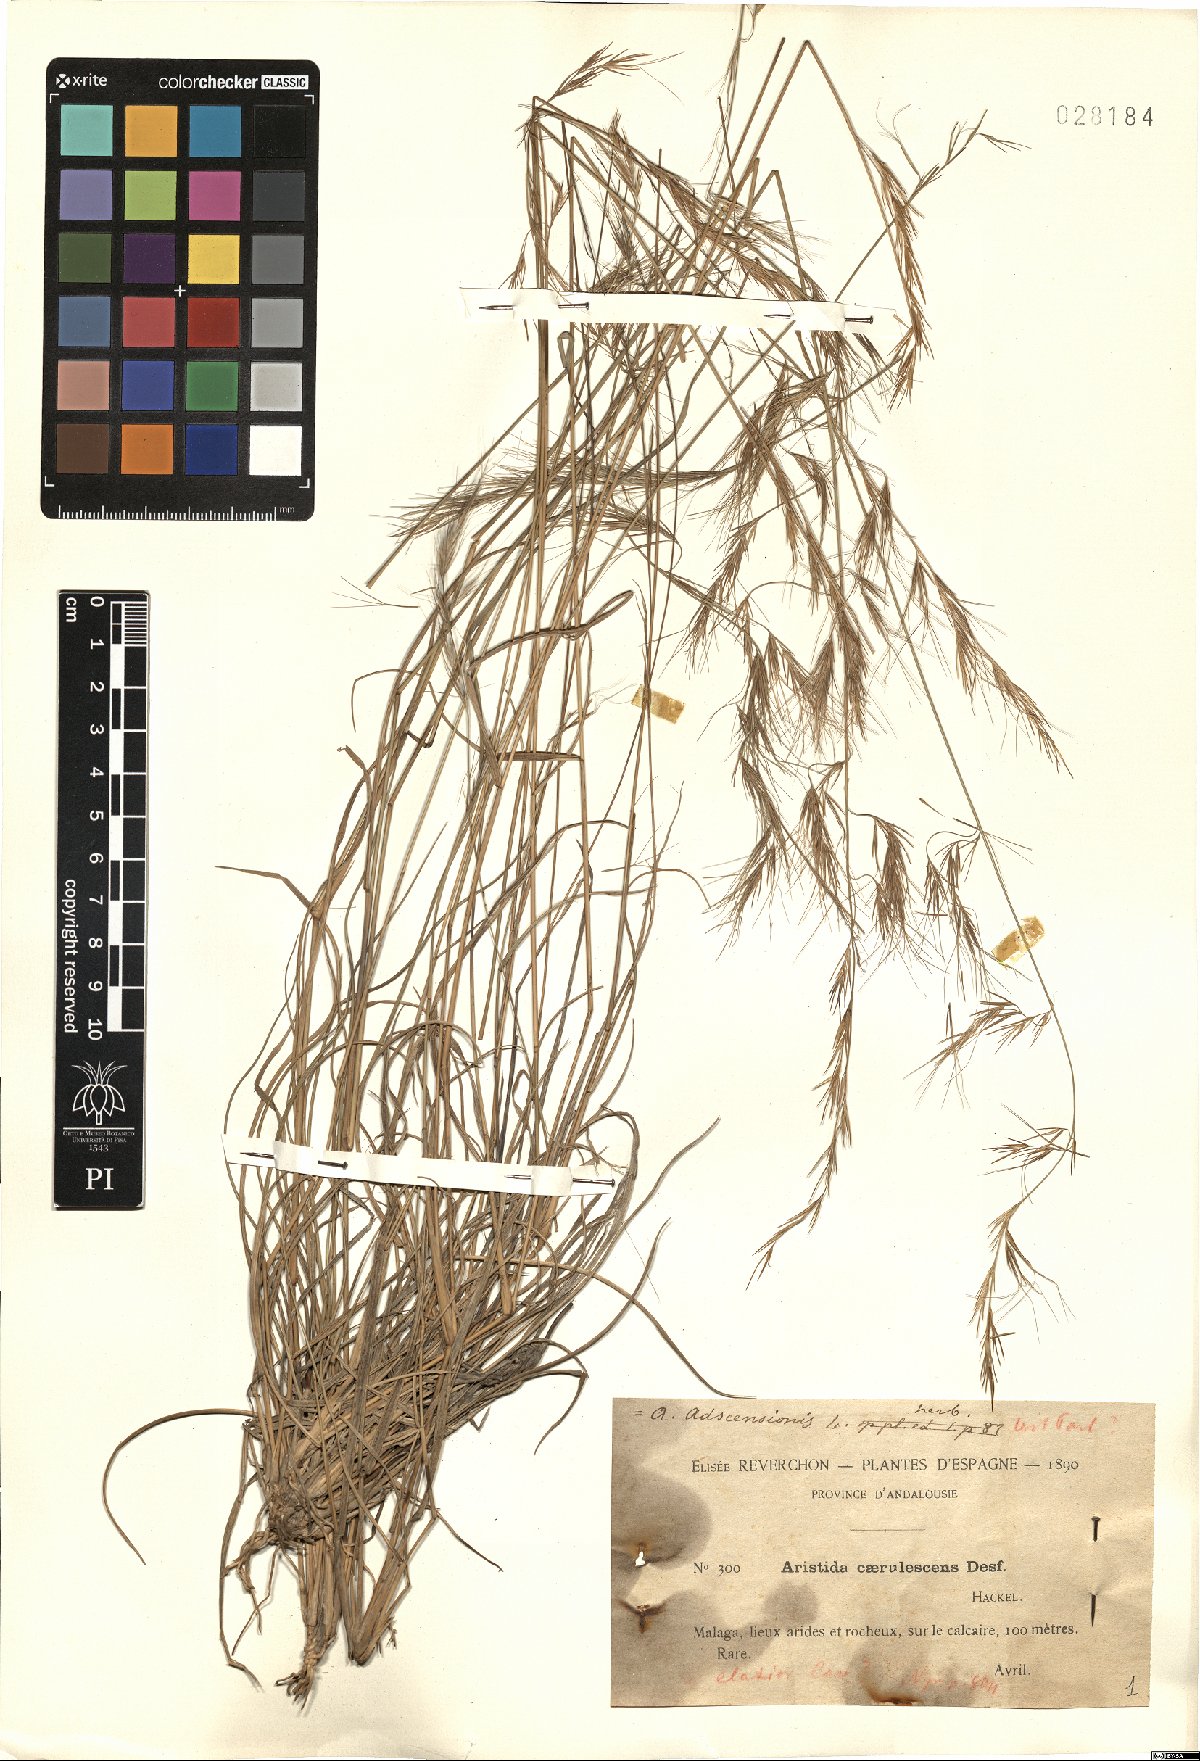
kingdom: Plantae
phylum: Tracheophyta
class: Liliopsida
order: Poales
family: Poaceae
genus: Aristida
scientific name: Aristida adscensionis
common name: Sixweeks threeawn
